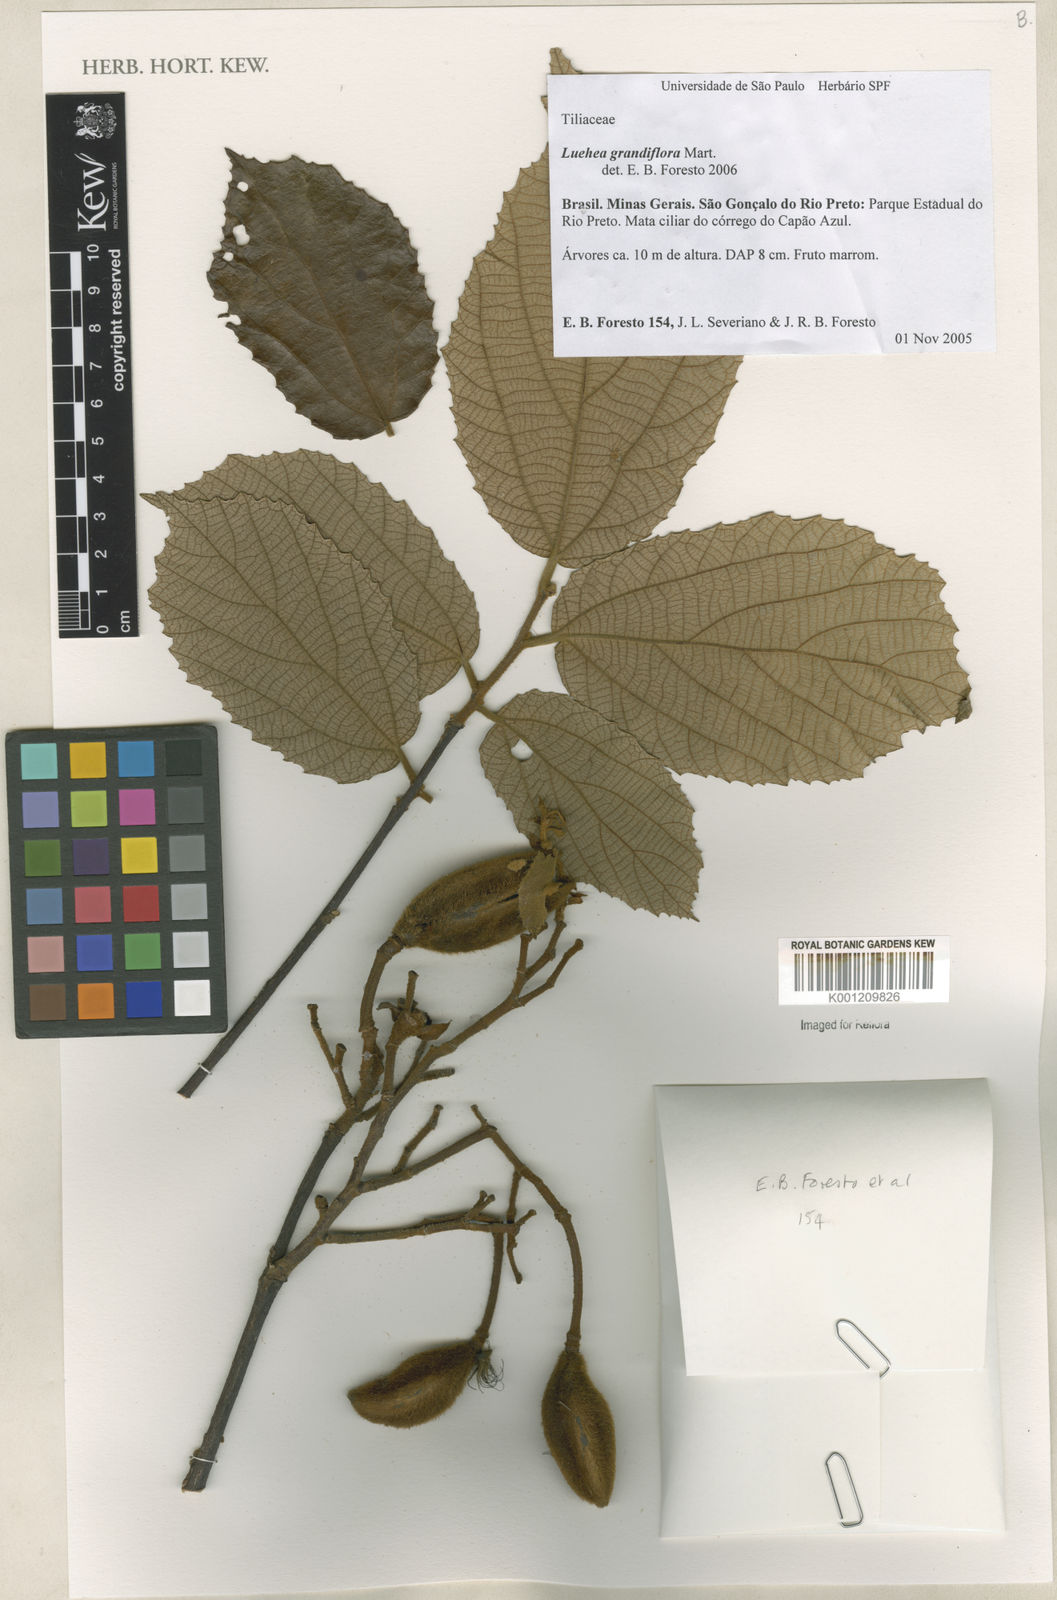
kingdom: Plantae
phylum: Tracheophyta
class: Magnoliopsida
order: Malvales
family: Malvaceae
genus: Luehea
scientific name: Luehea grandiflora
